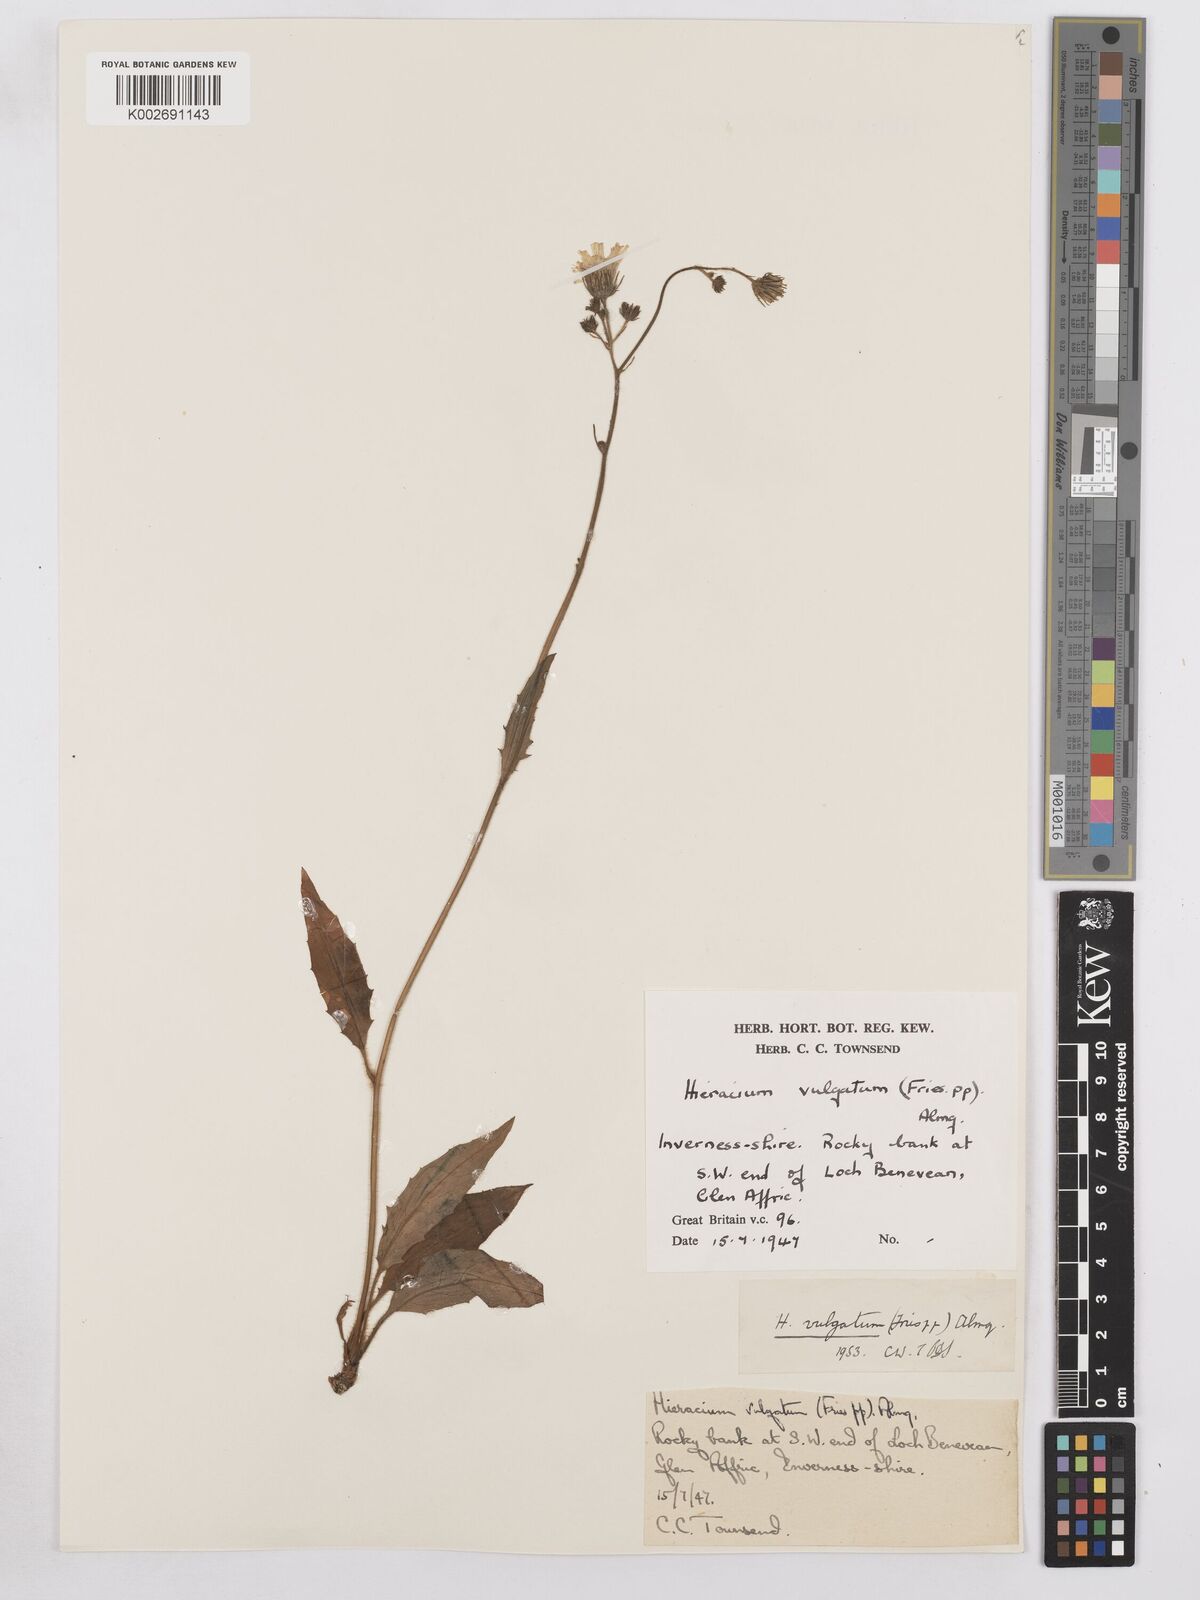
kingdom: Plantae
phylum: Tracheophyta
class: Magnoliopsida
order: Asterales
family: Asteraceae
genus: Hieracium
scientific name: Hieracium lachenalii
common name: Common hawkweed
